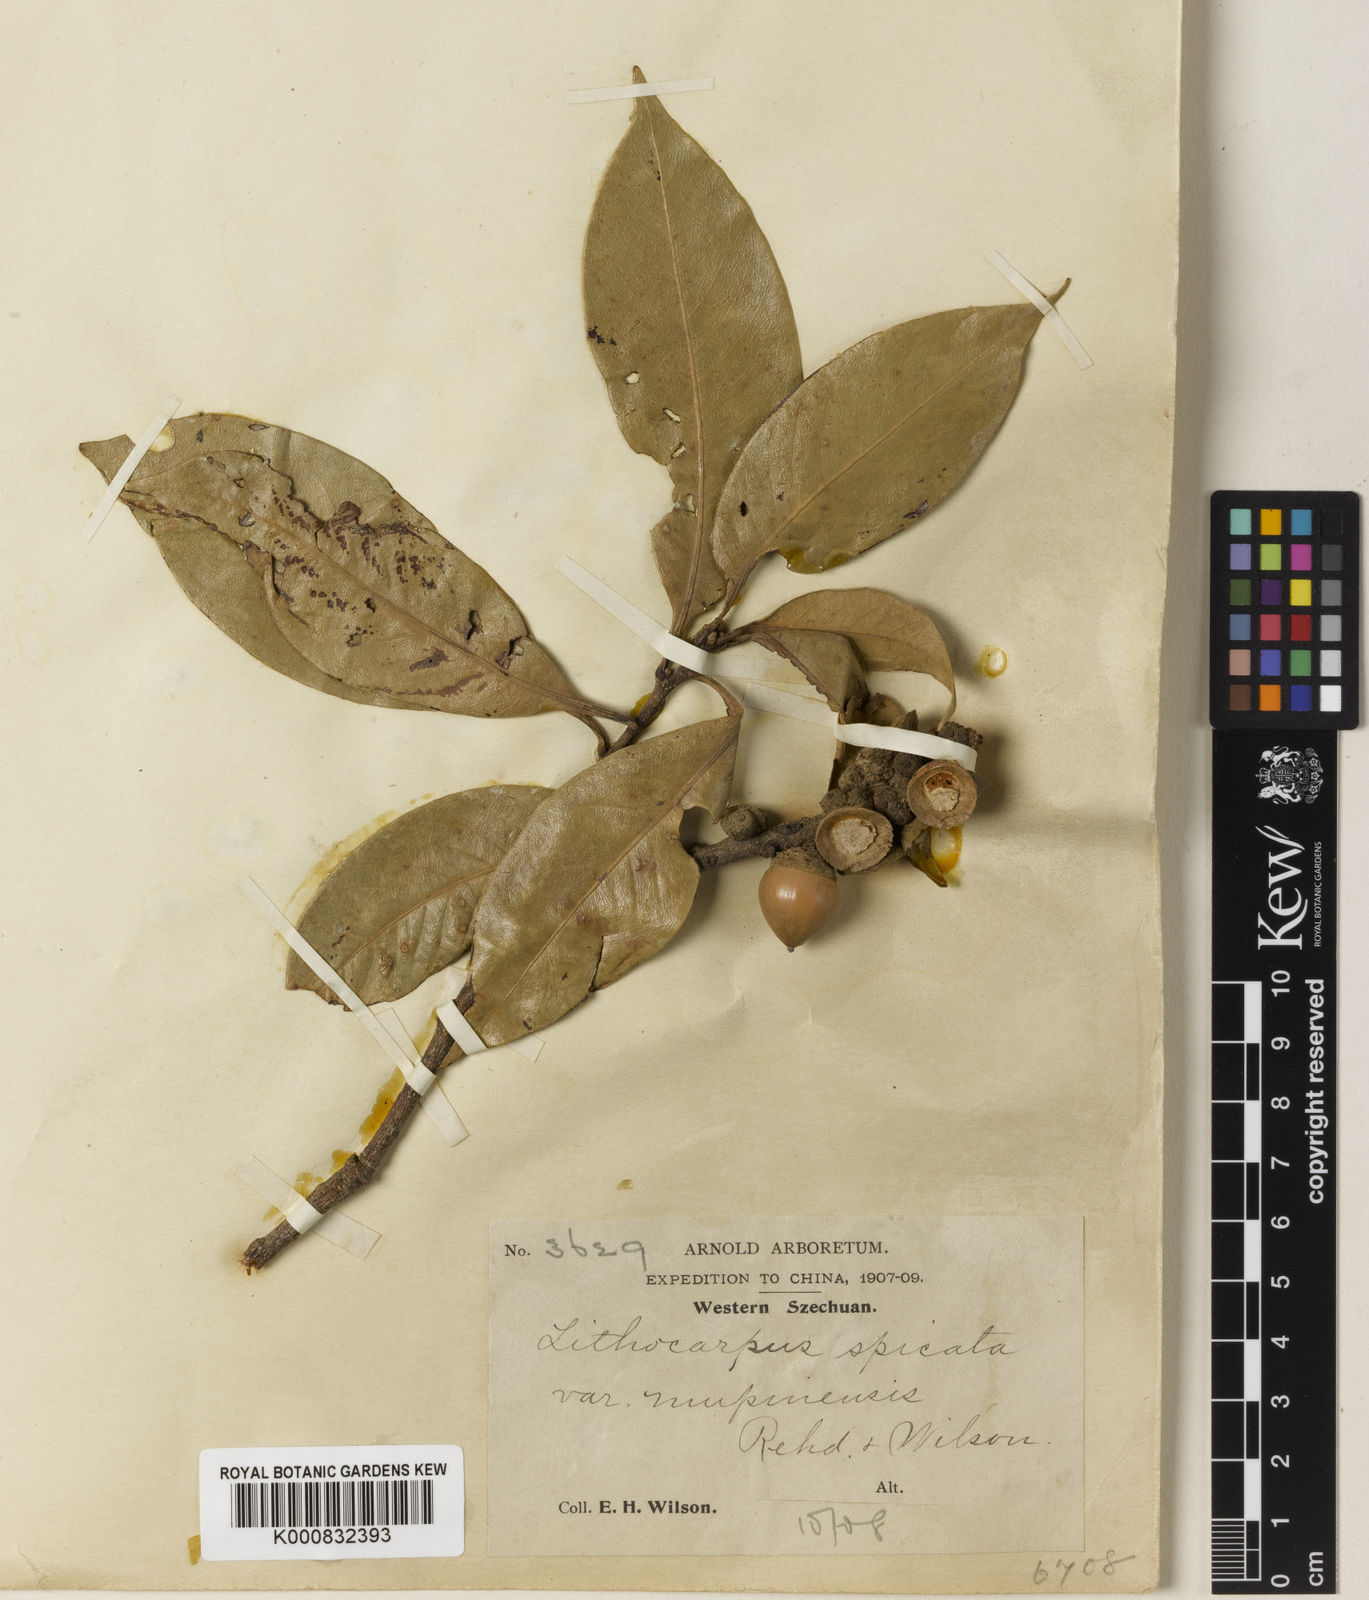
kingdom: Plantae
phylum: Tracheophyta
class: Magnoliopsida
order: Fagales
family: Fagaceae
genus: Lithocarpus
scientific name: Lithocarpus elegans
